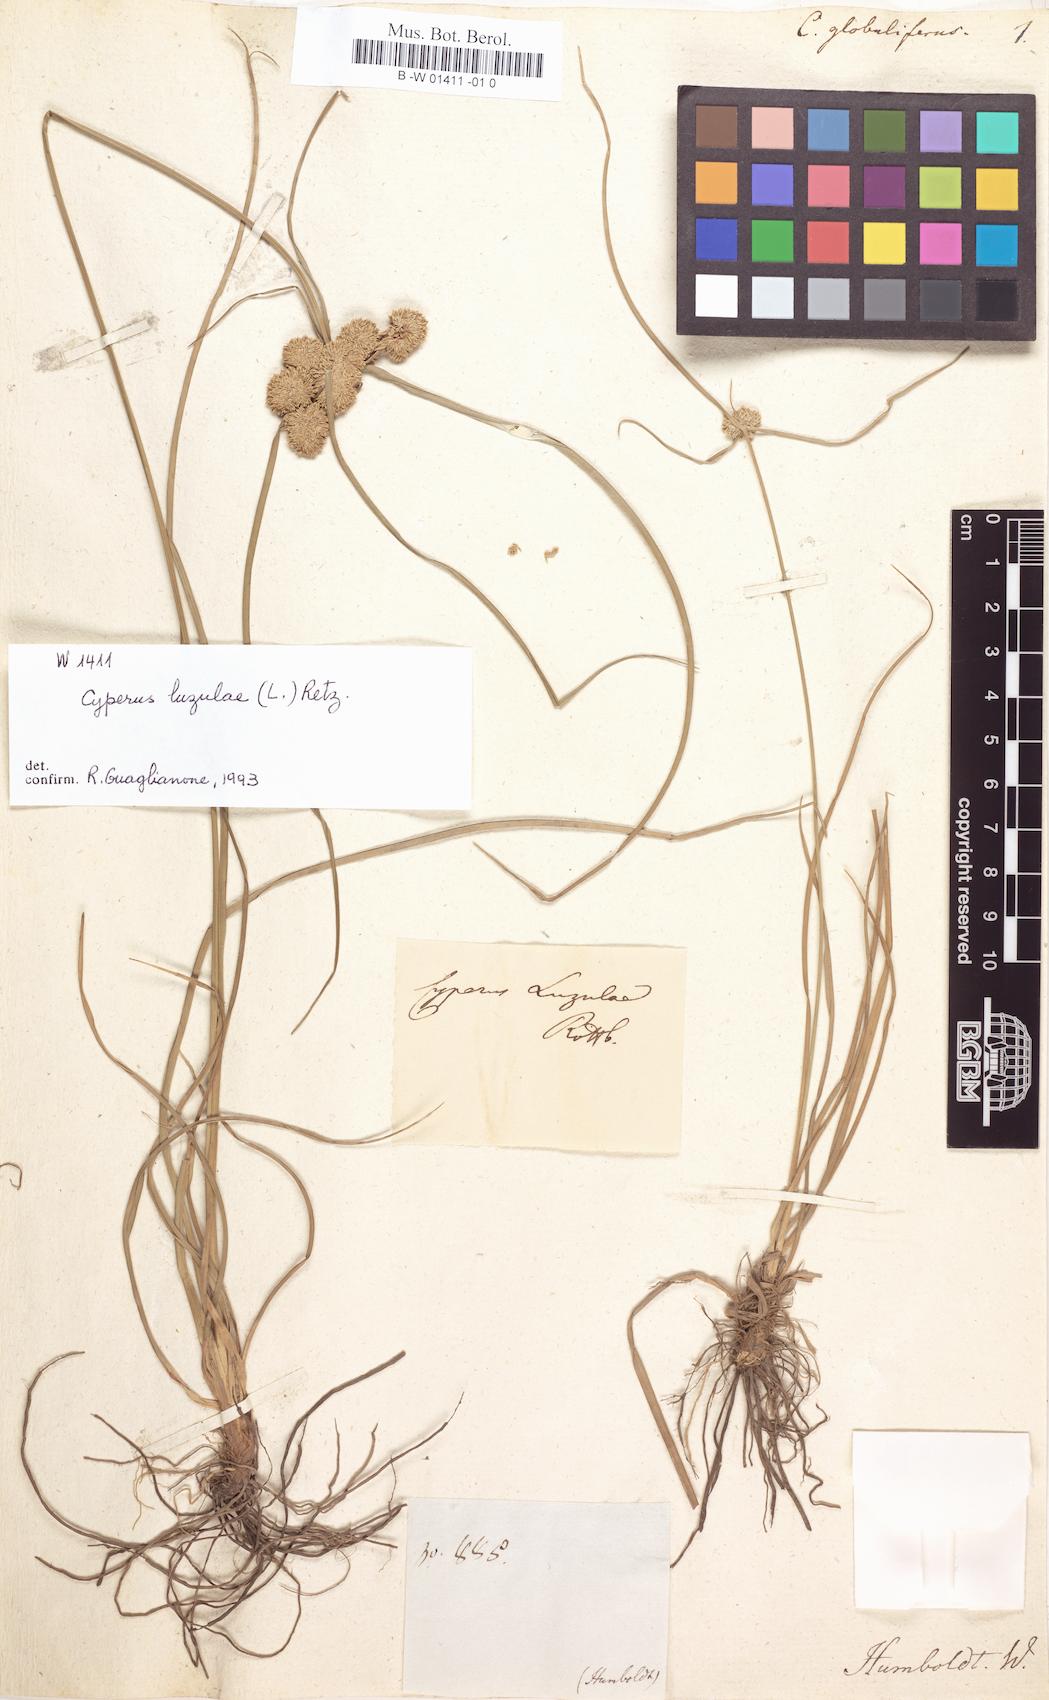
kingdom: Plantae
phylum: Tracheophyta
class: Liliopsida
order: Poales
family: Cyperaceae
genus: Cyperus
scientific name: Cyperus luzulae
